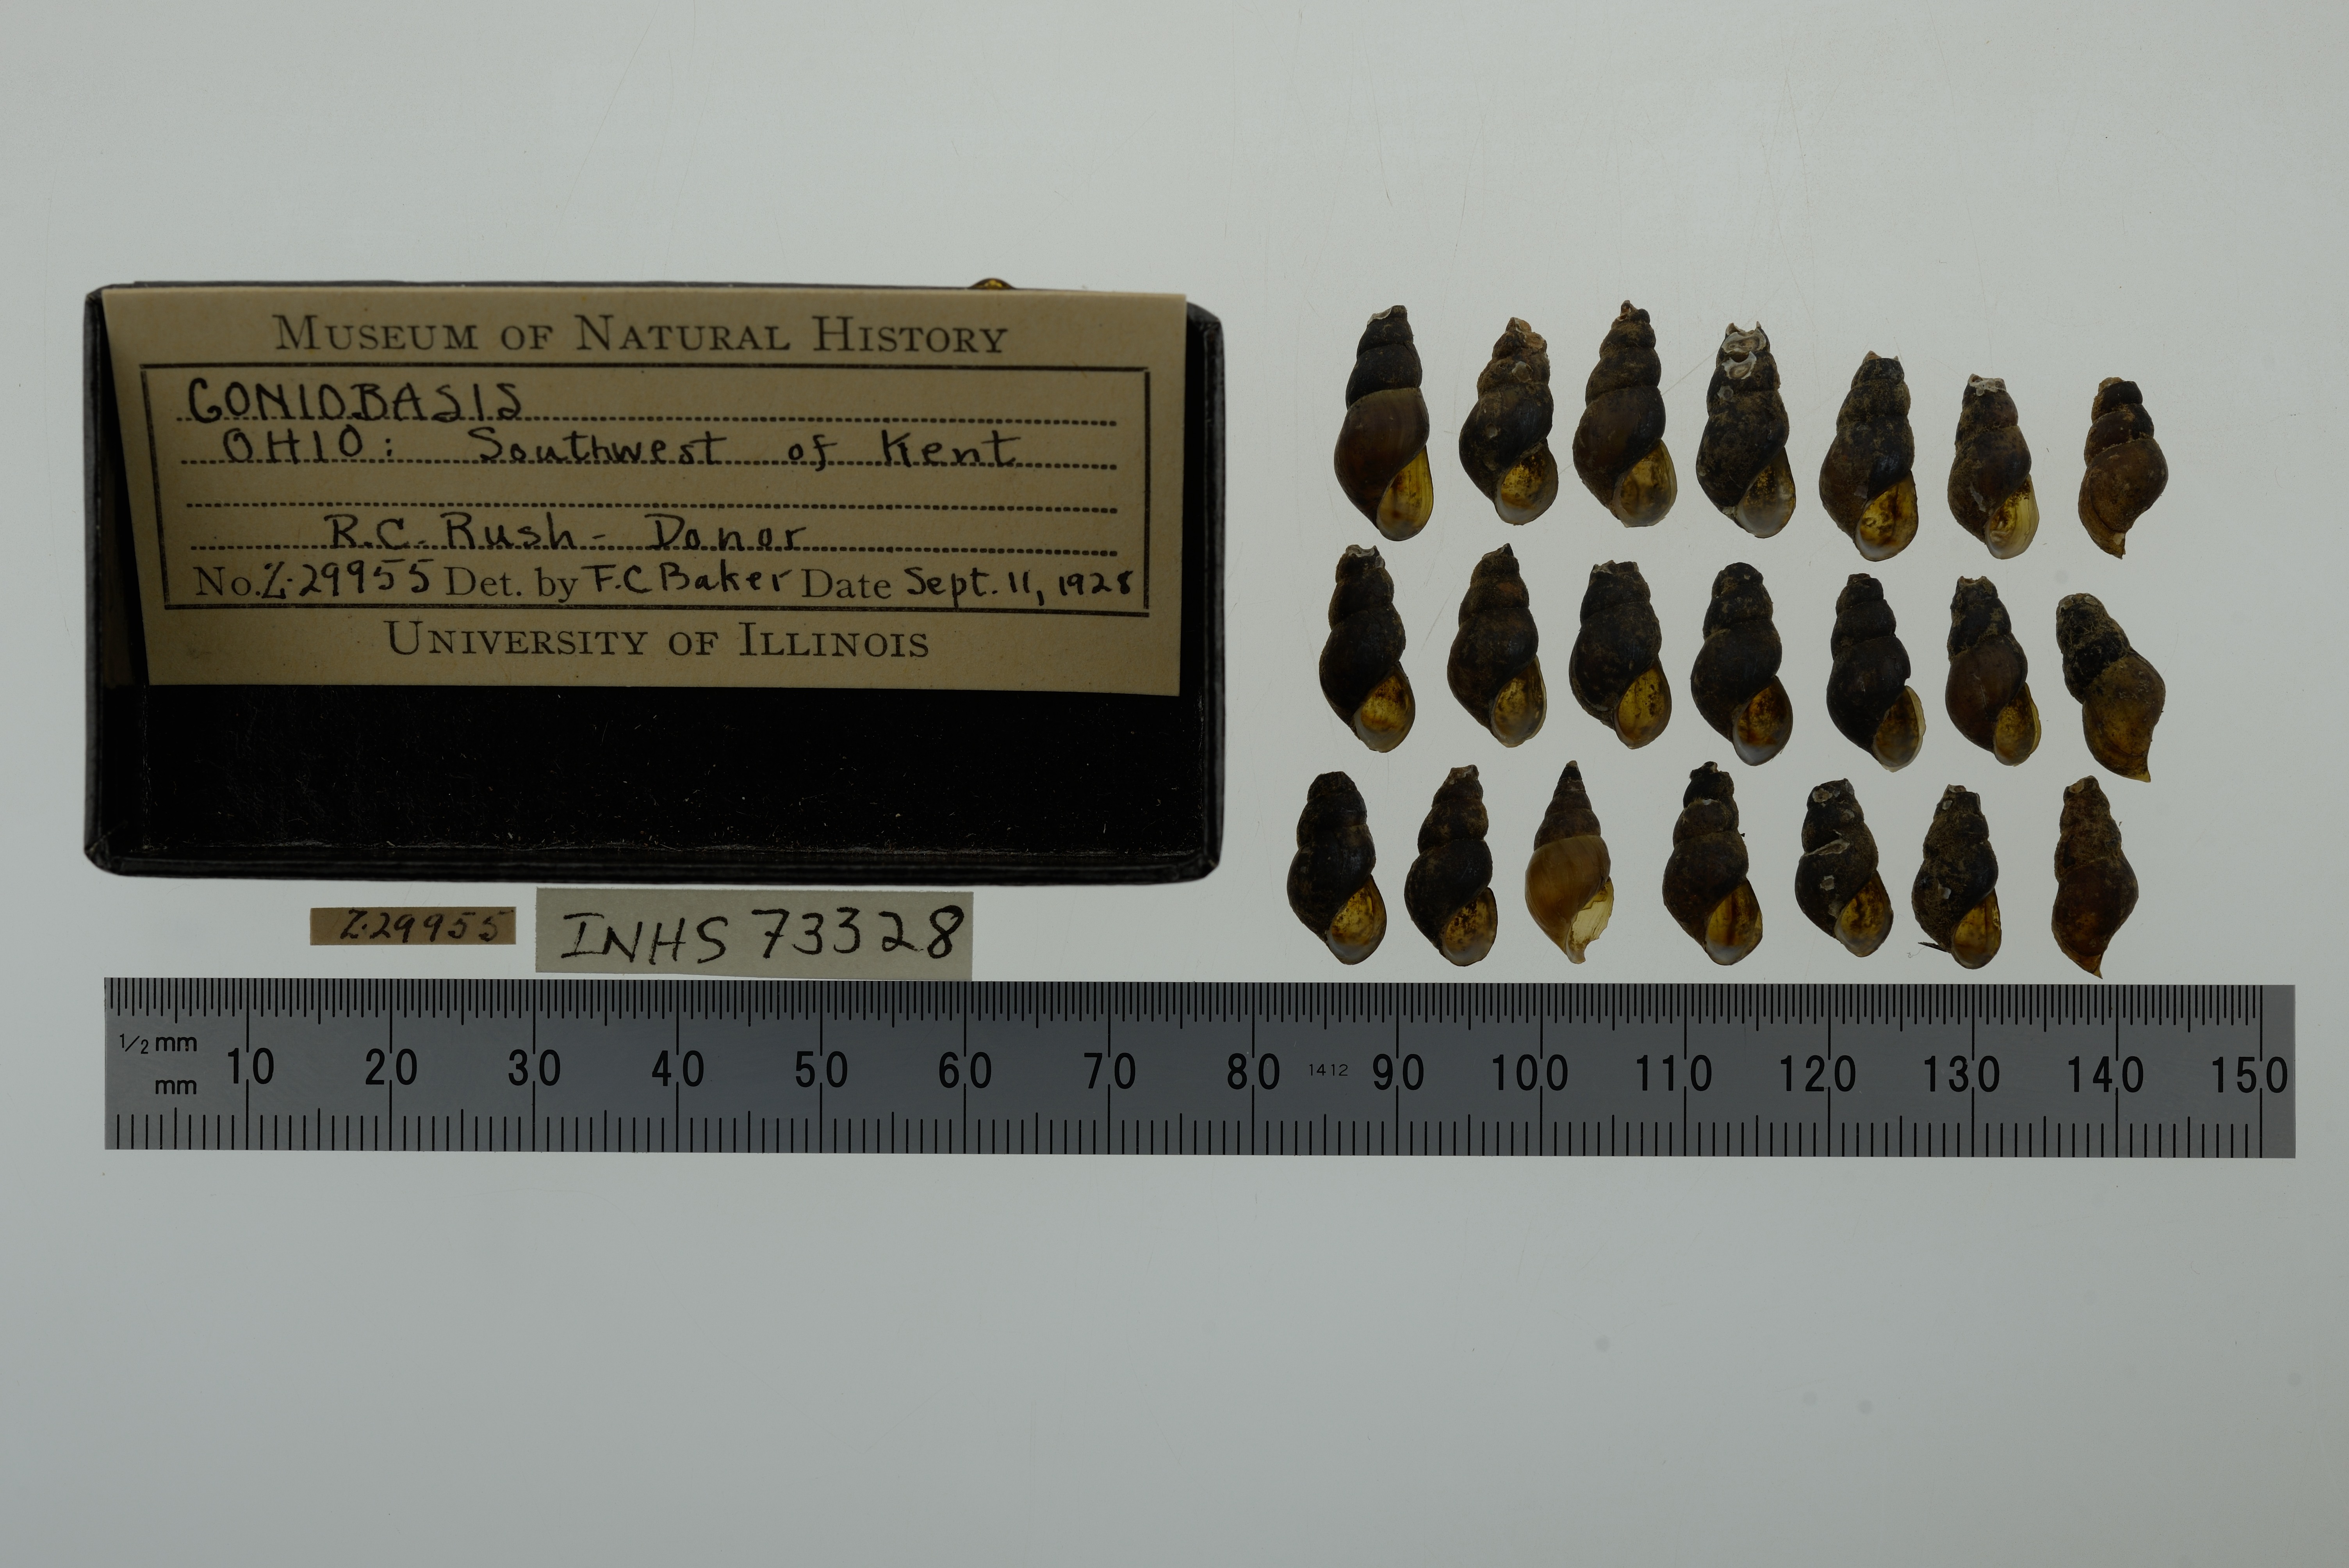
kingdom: Animalia
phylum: Mollusca
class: Gastropoda
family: Pleuroceridae
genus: Elimia
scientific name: Elimia
